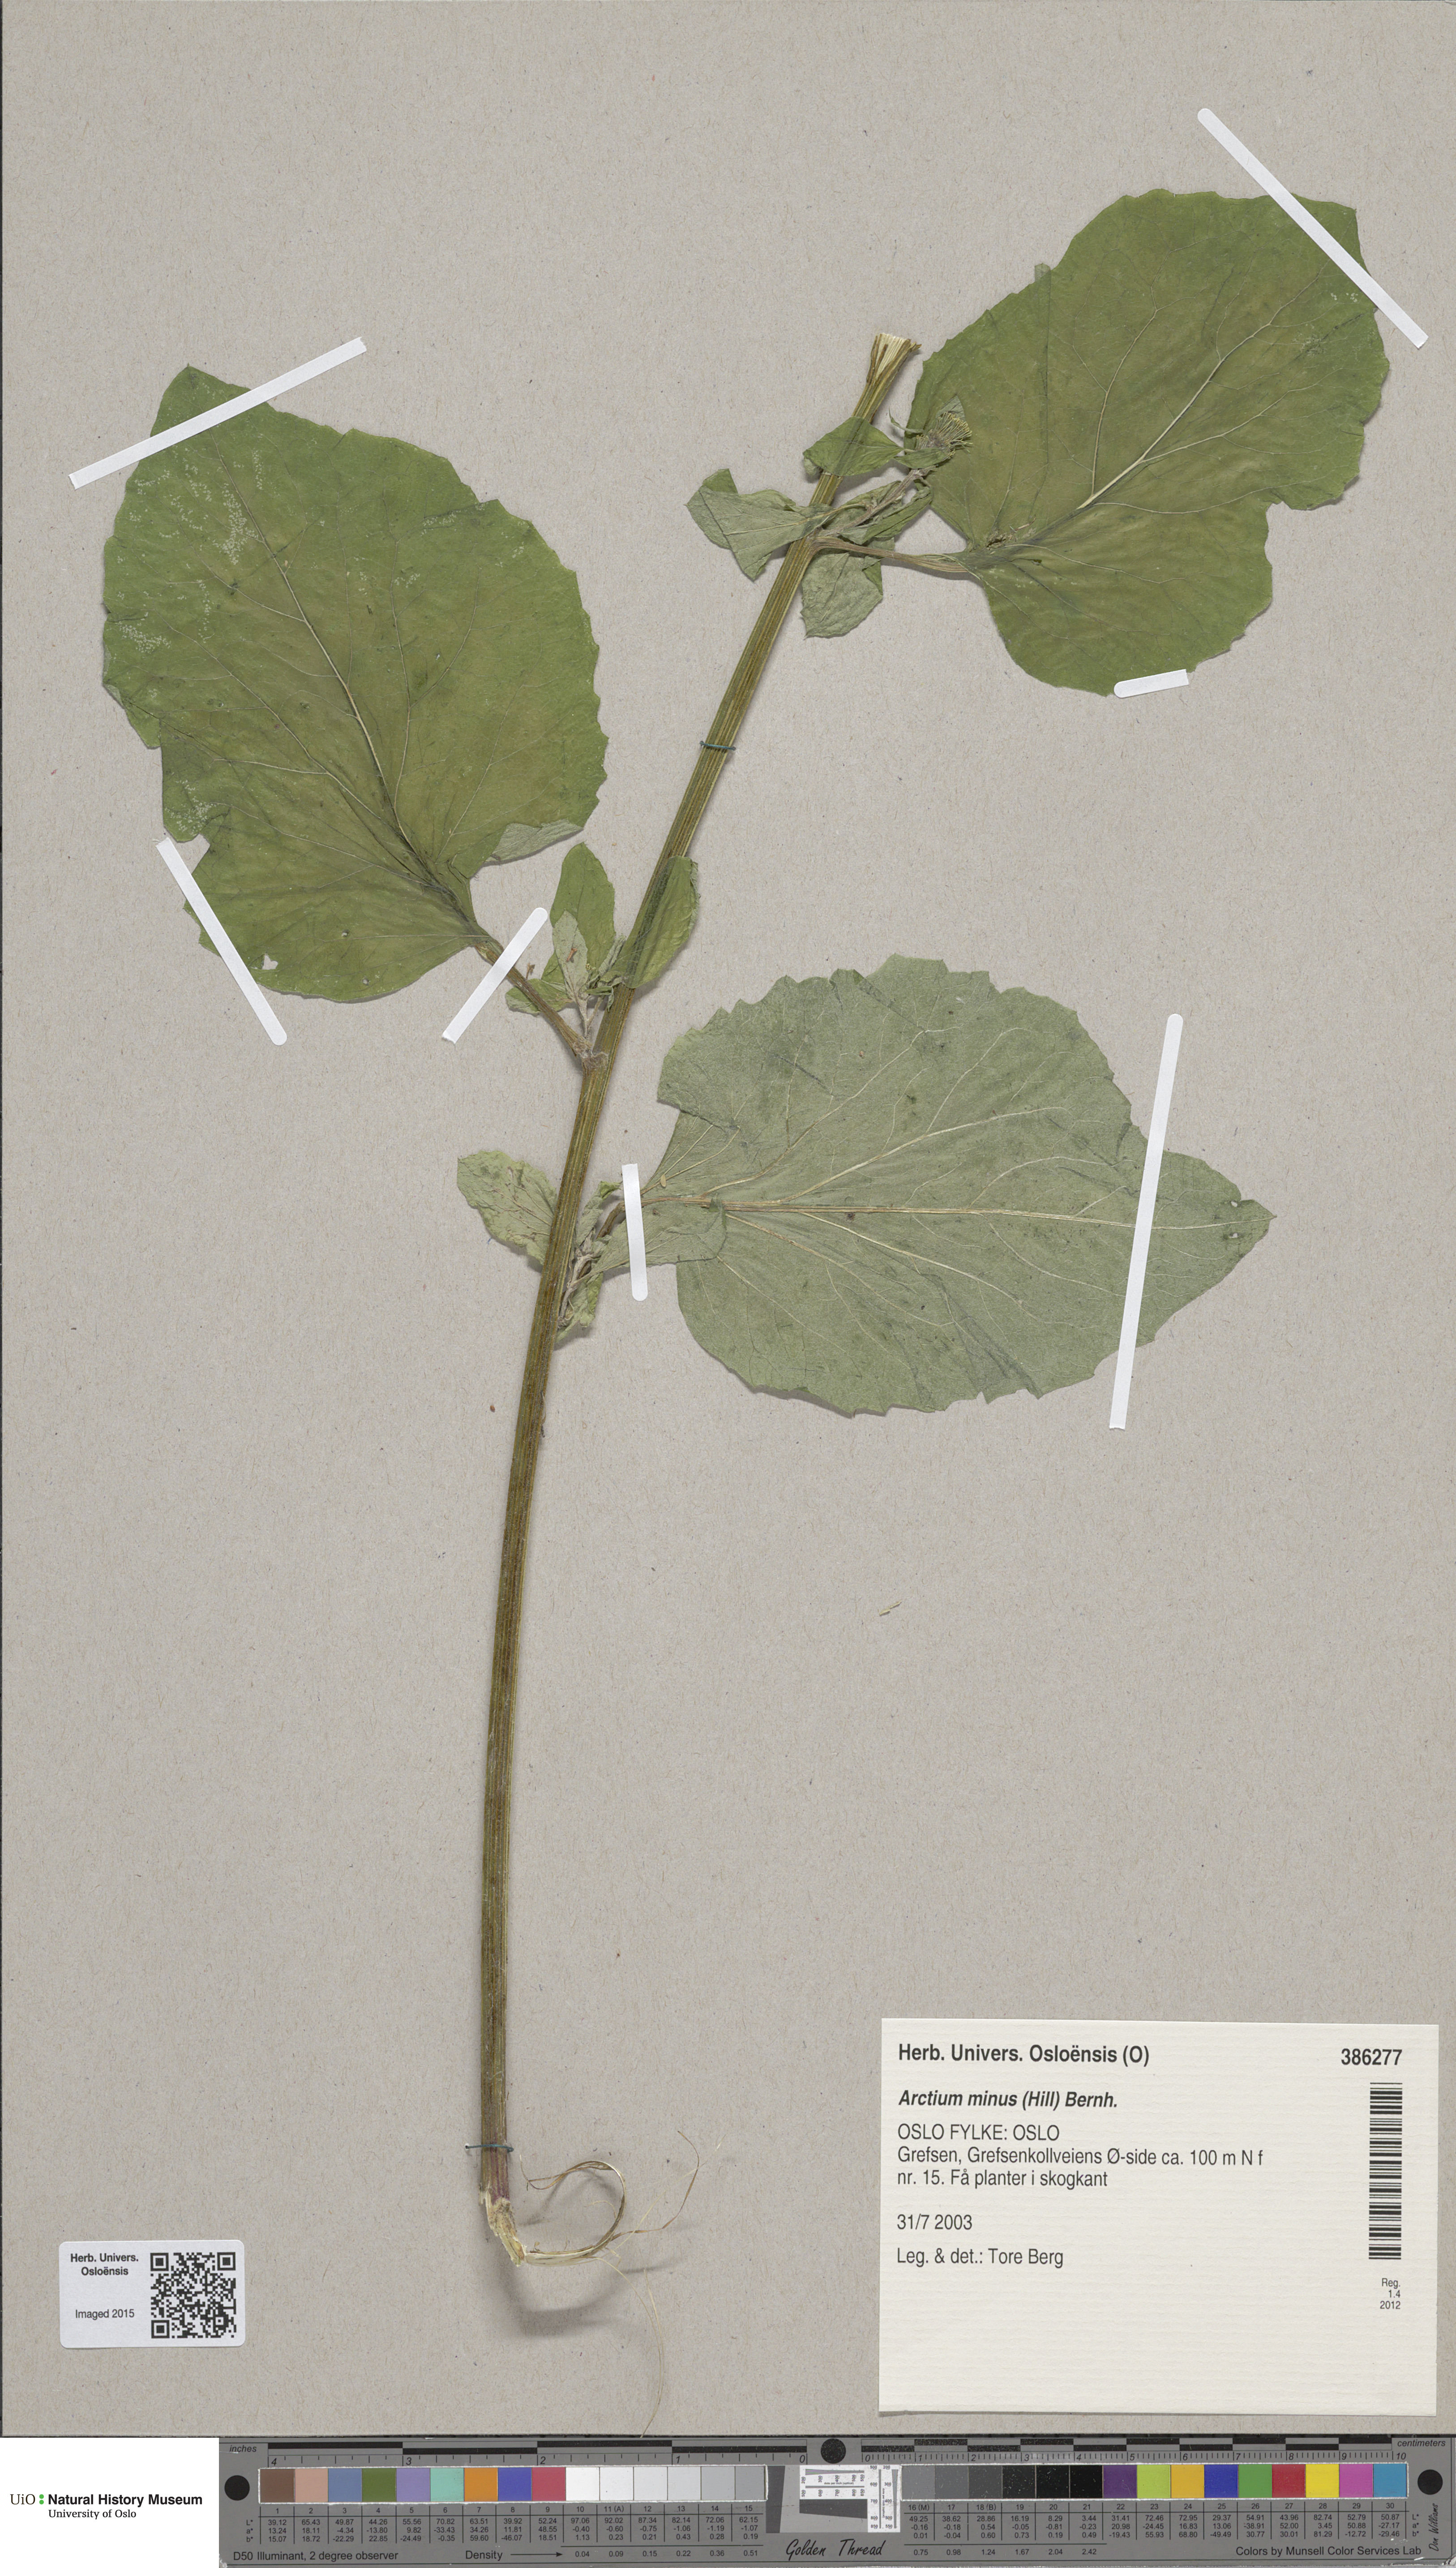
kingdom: Plantae
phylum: Tracheophyta
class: Magnoliopsida
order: Asterales
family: Asteraceae
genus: Arctium
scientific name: Arctium minus
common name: Lesser burdock
